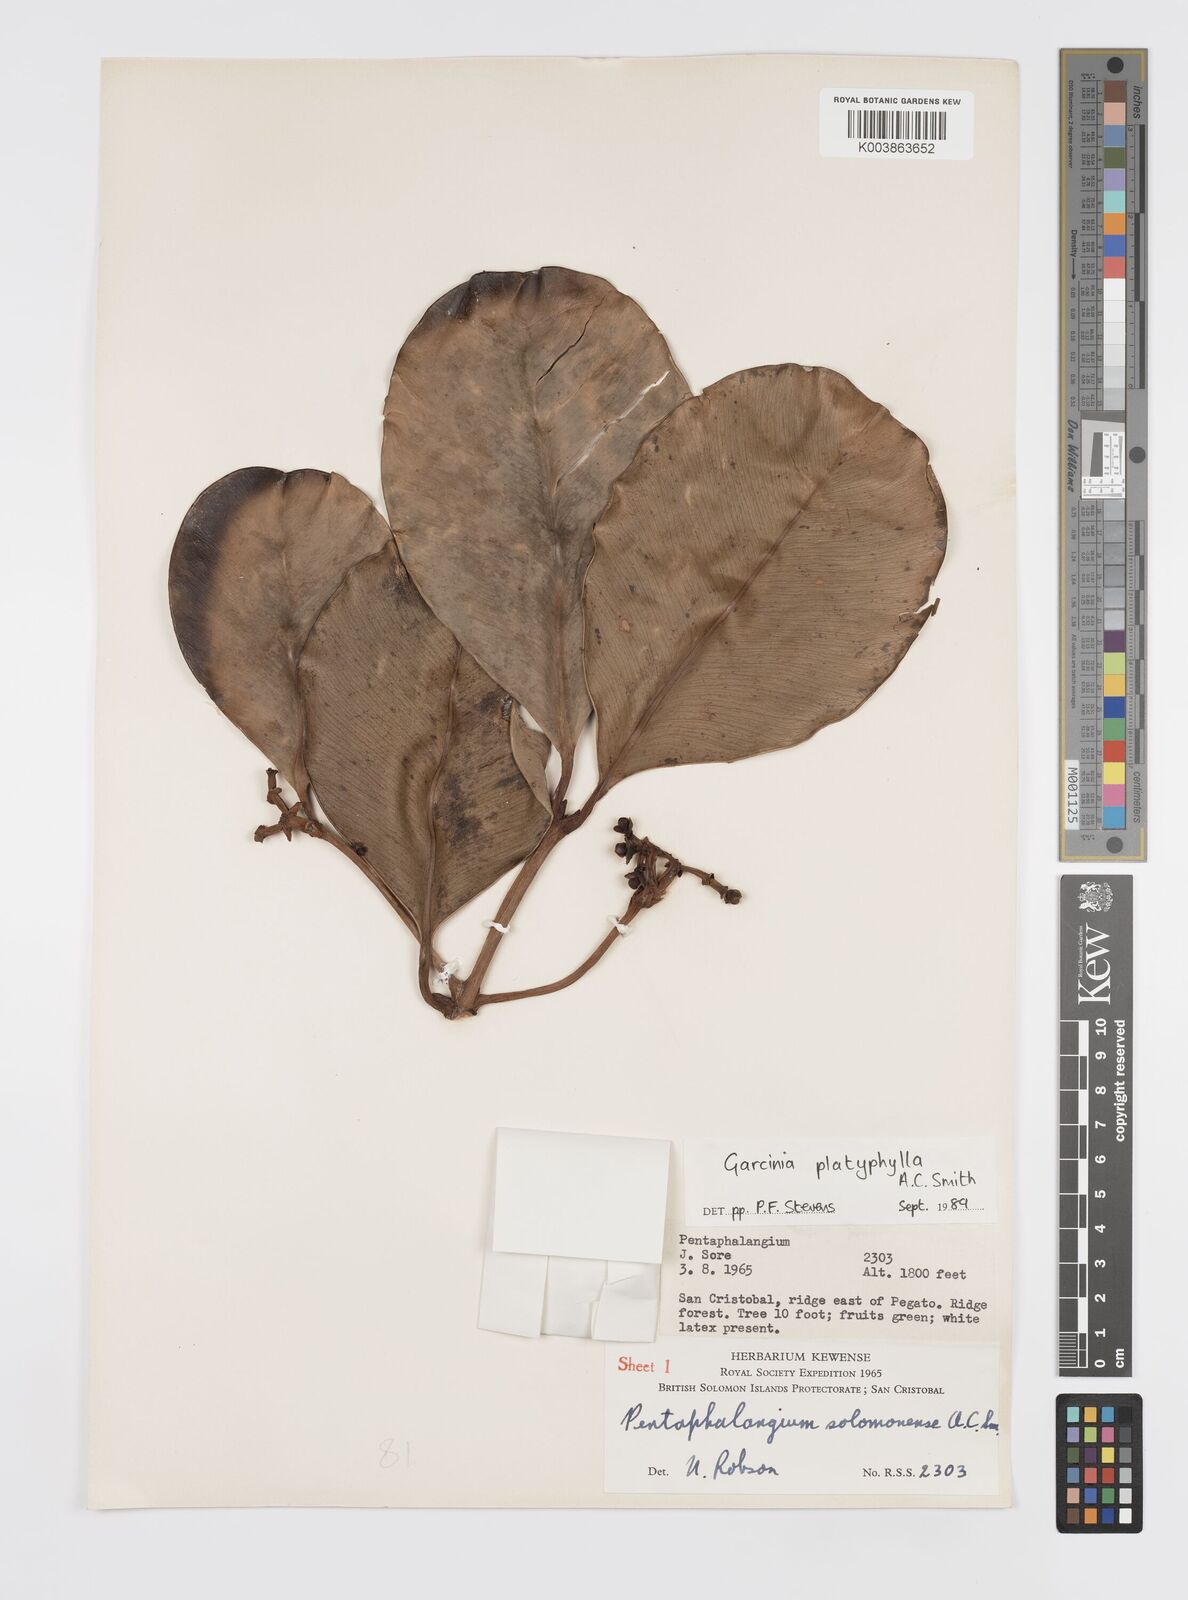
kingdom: Plantae
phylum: Tracheophyta
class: Magnoliopsida
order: Malpighiales
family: Clusiaceae
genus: Garcinia
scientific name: Garcinia platyphylla
